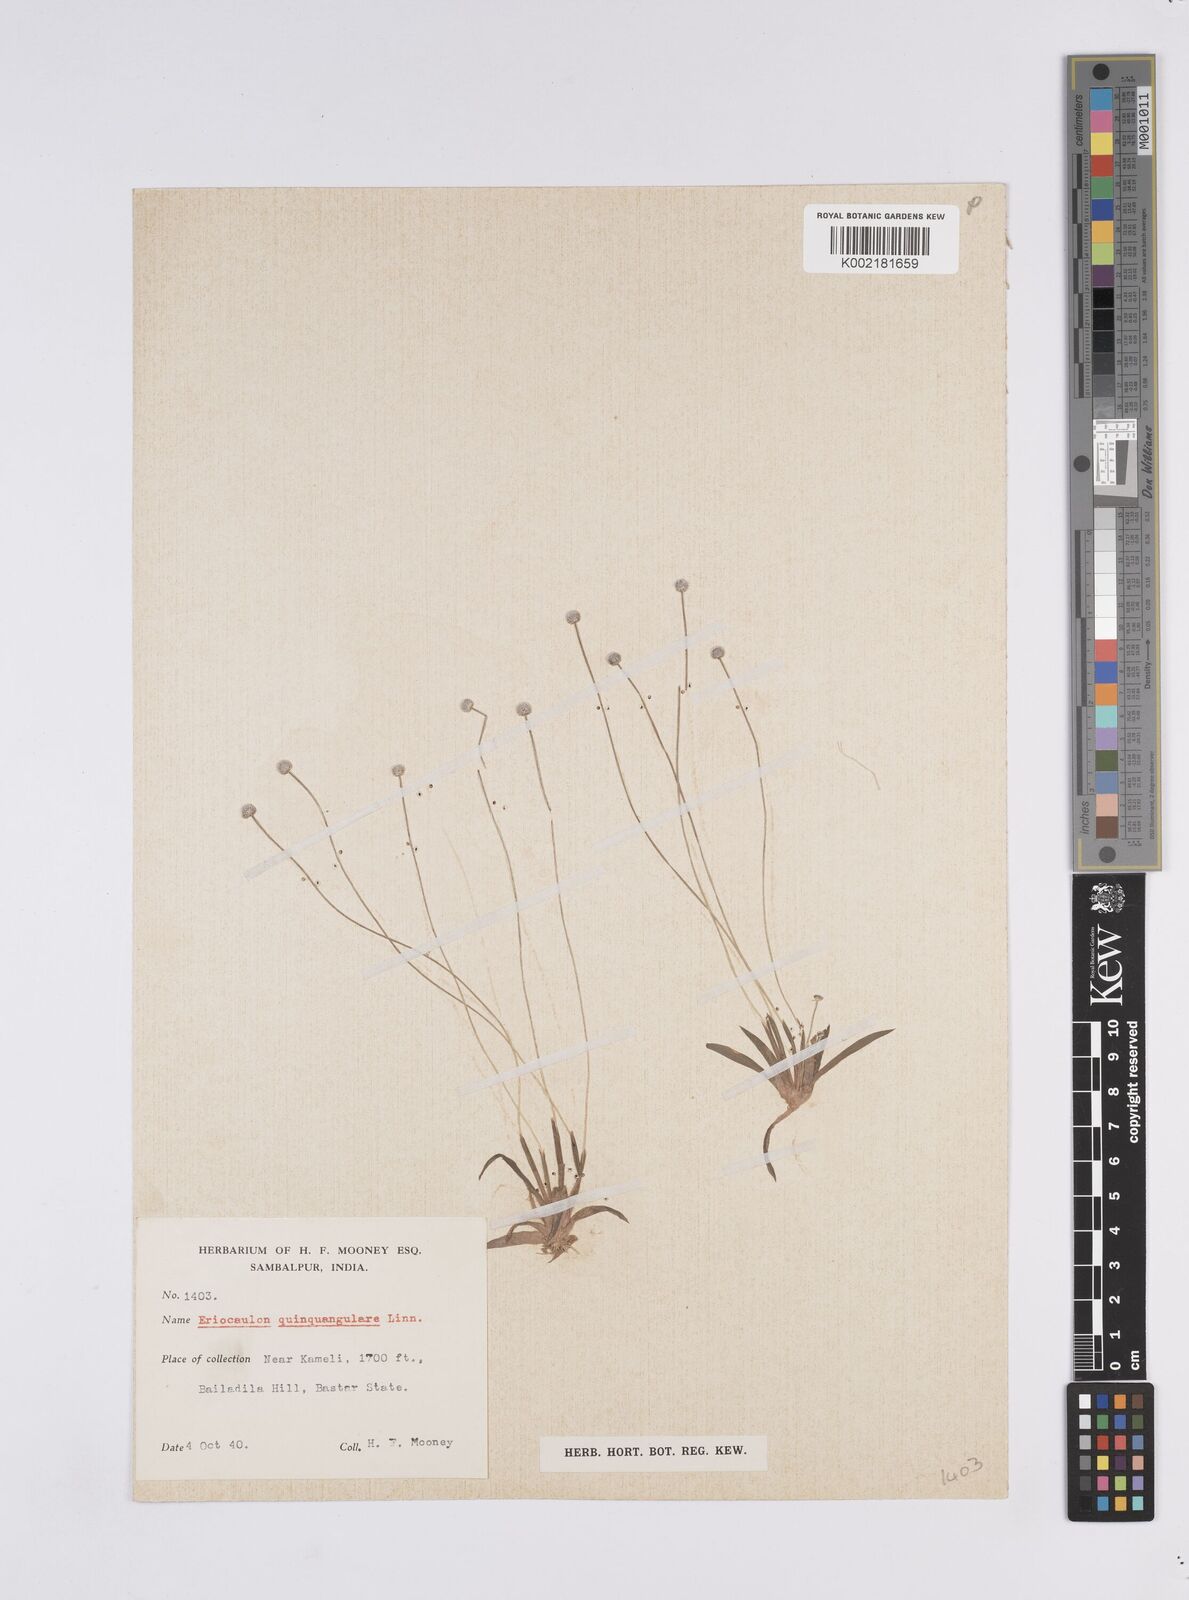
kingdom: Plantae
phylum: Tracheophyta
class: Liliopsida
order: Poales
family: Eriocaulaceae
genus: Eriocaulon
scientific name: Eriocaulon quinquangulare
